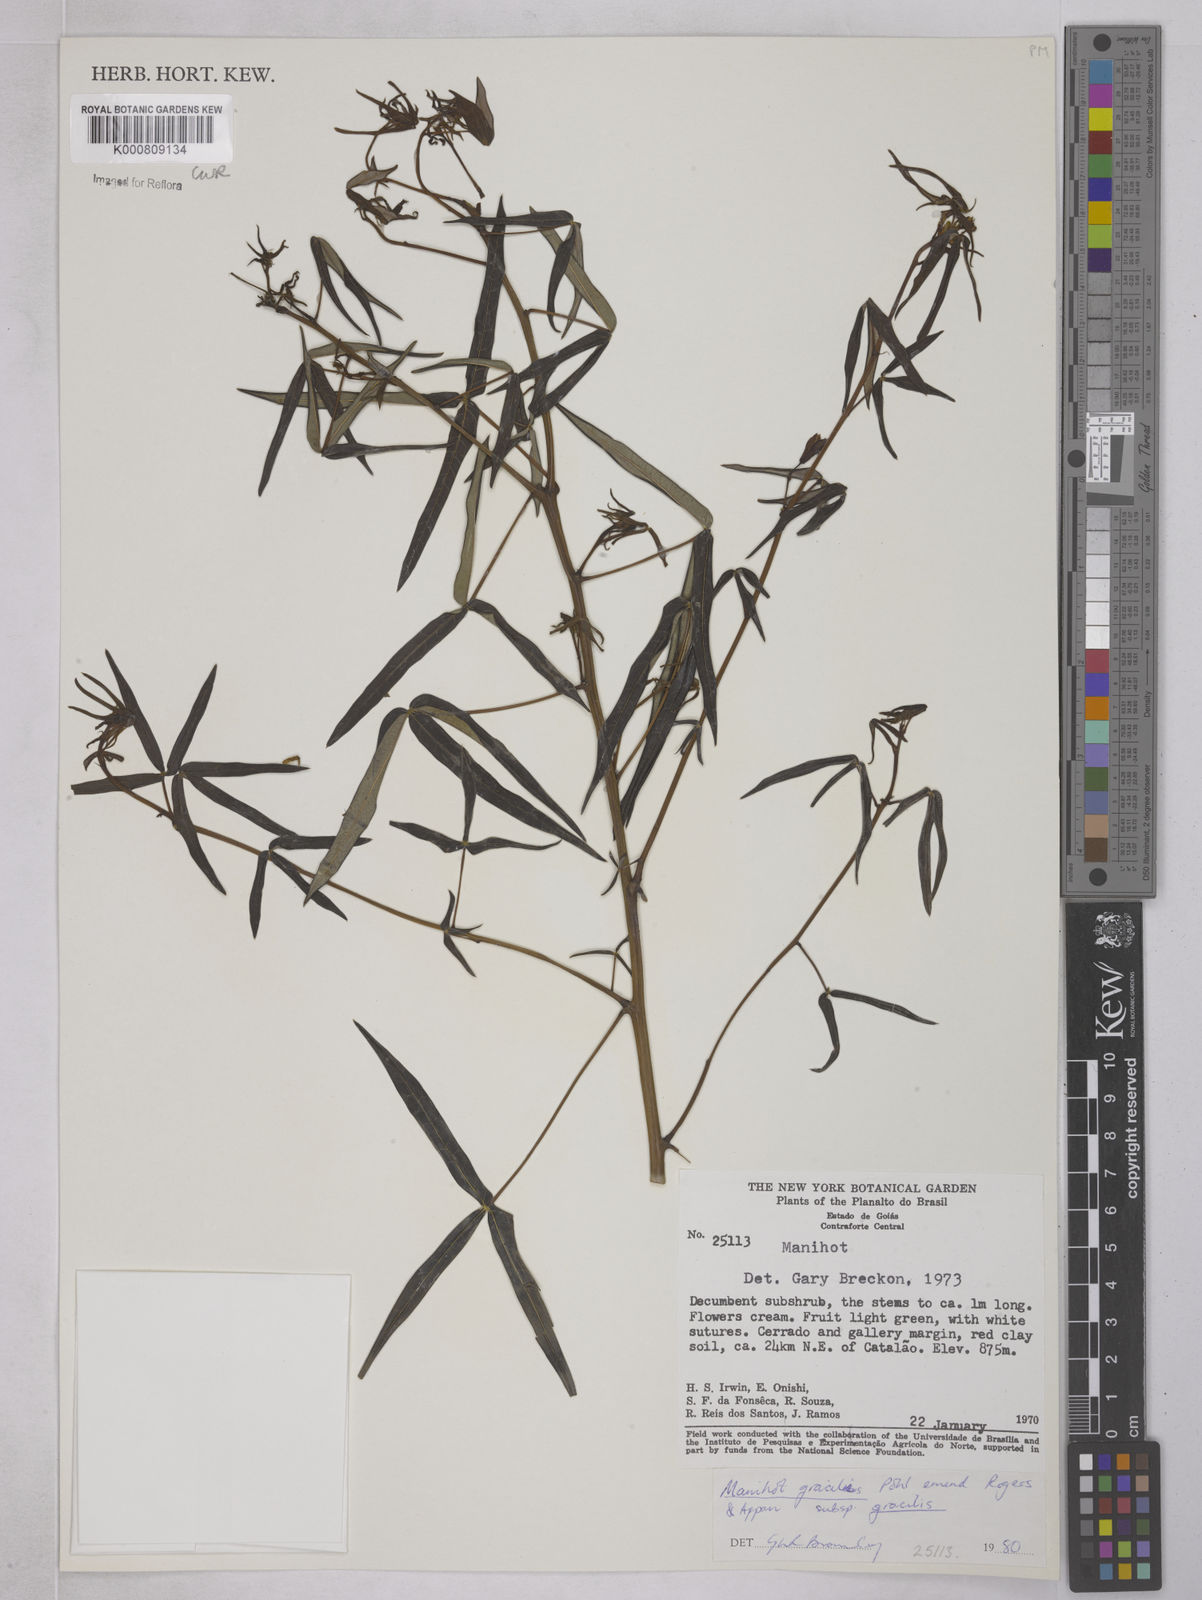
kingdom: Plantae
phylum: Tracheophyta
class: Magnoliopsida
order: Malpighiales
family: Euphorbiaceae
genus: Manihot
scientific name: Manihot gracilis
